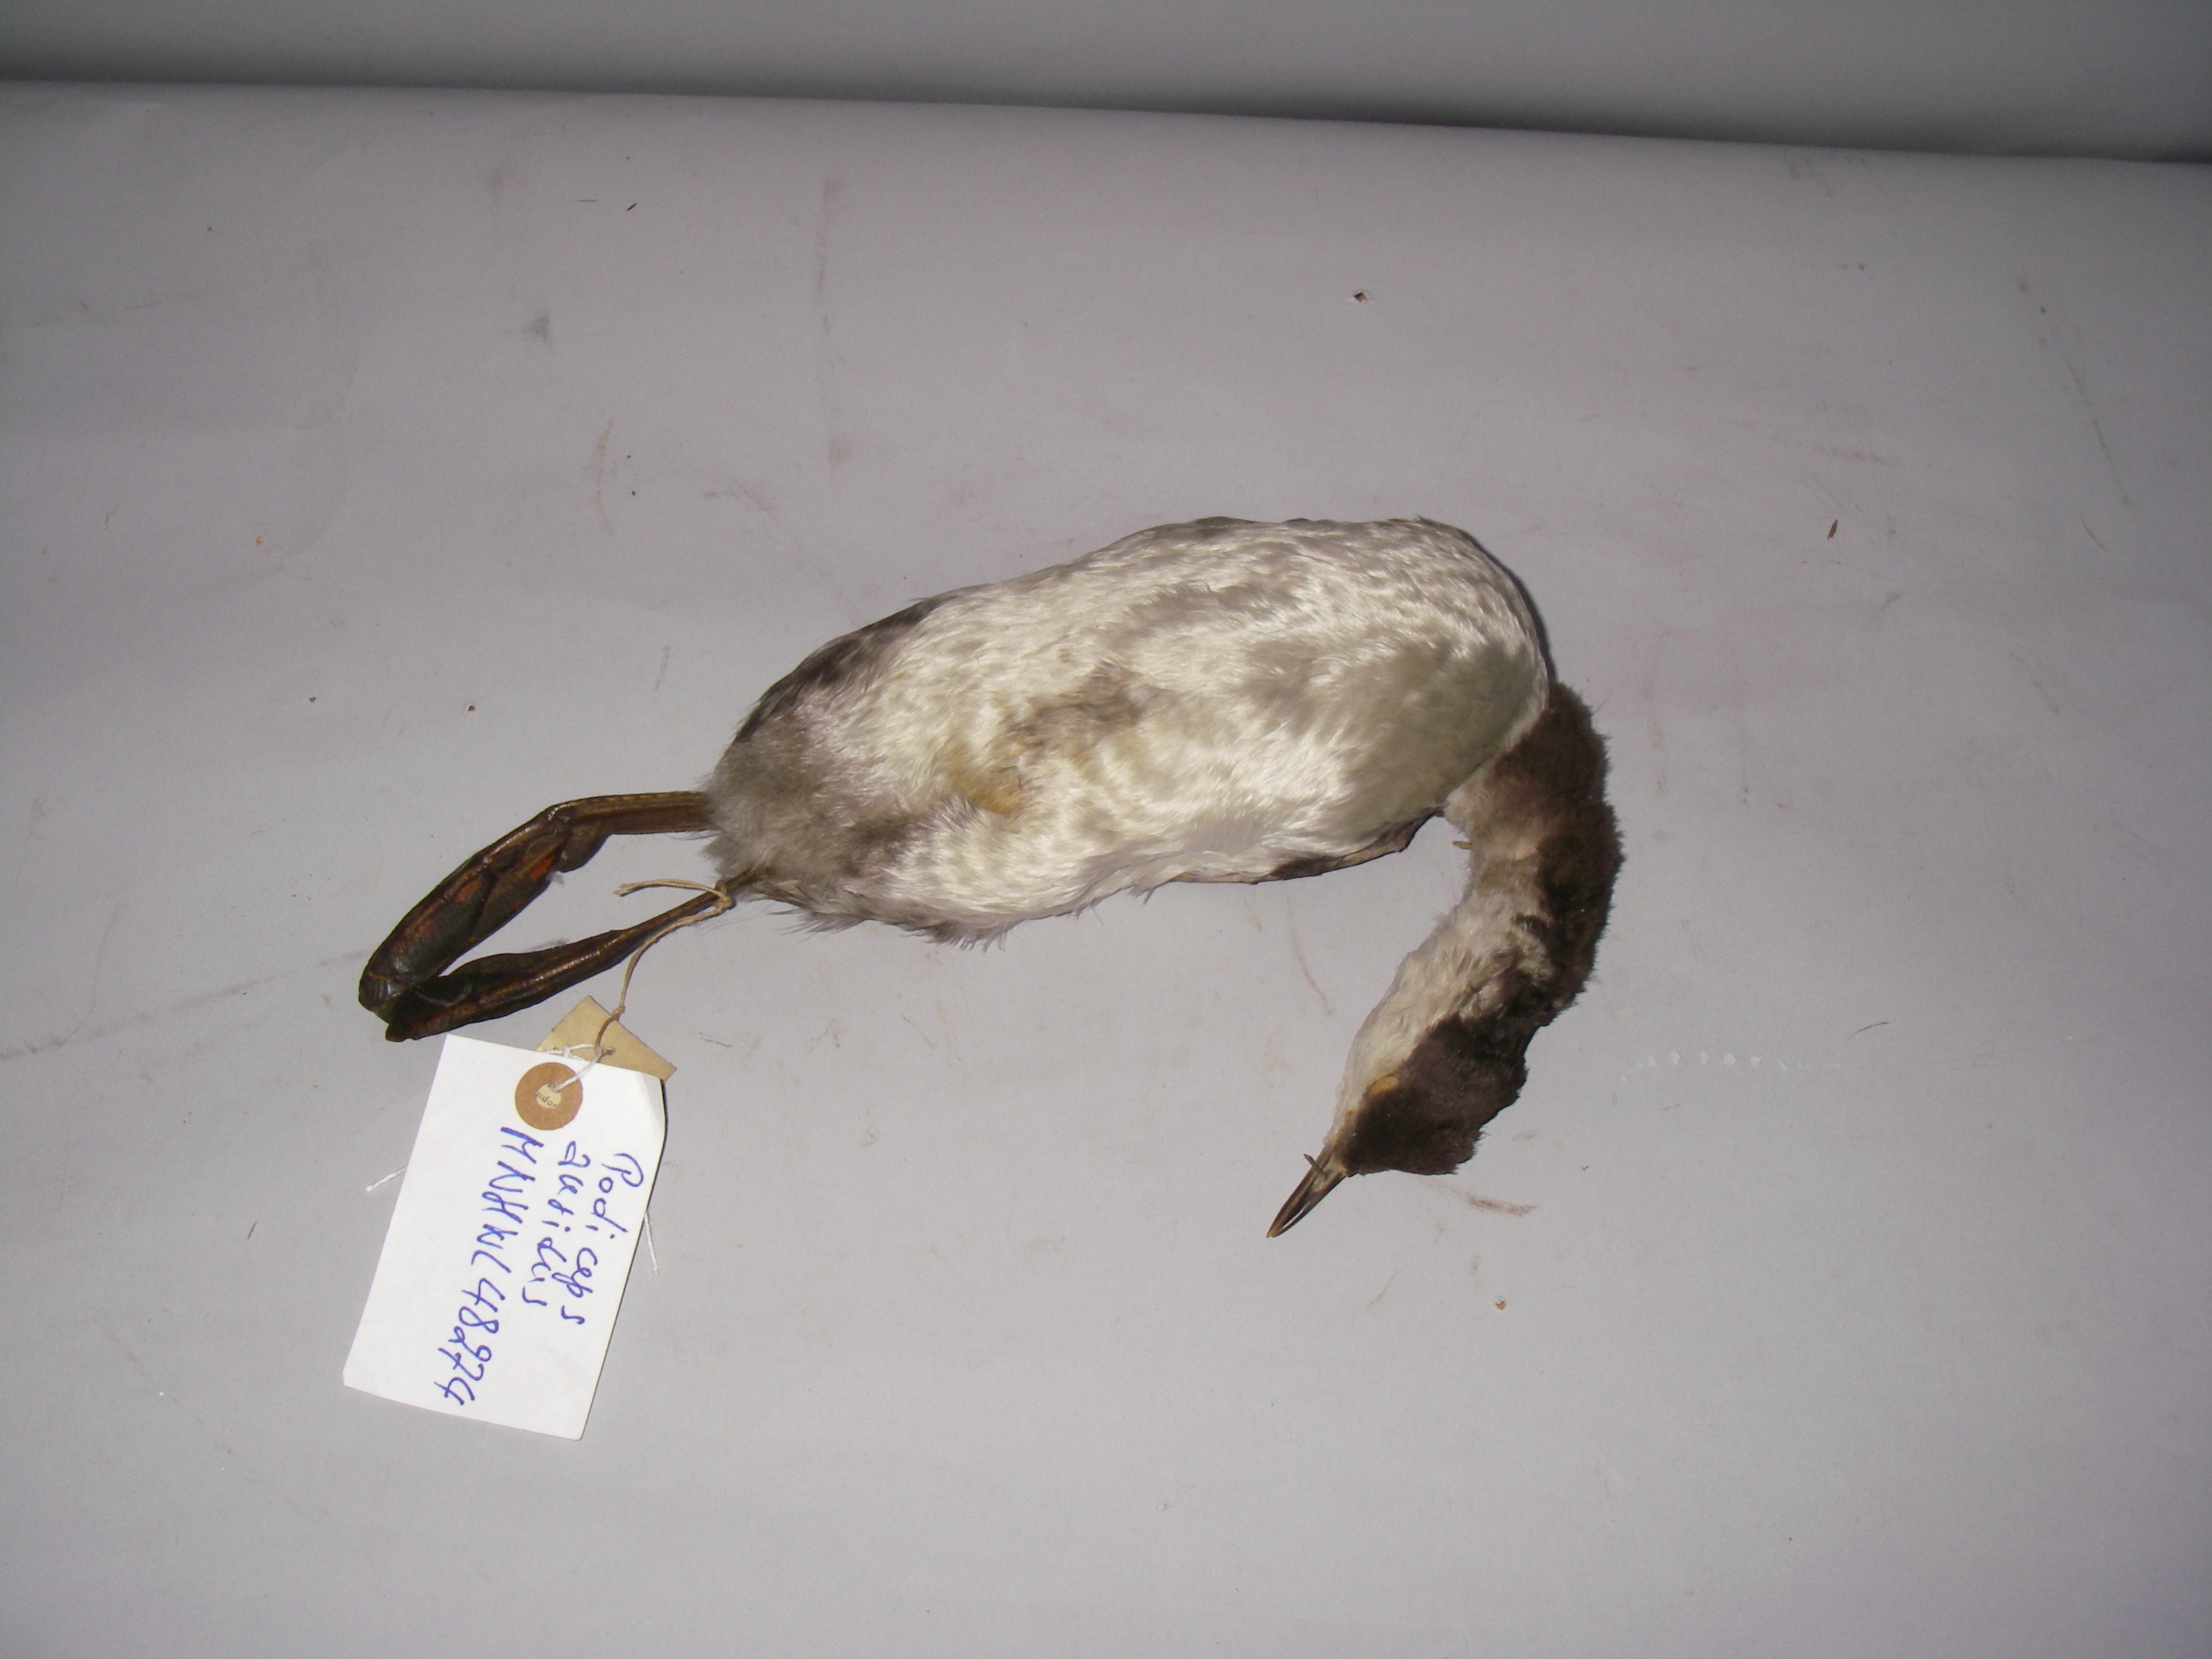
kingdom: Animalia
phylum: Chordata
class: Aves
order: Podicipediformes
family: Podicipedidae
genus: Podiceps
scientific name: Podiceps auritus
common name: Horned grebe
